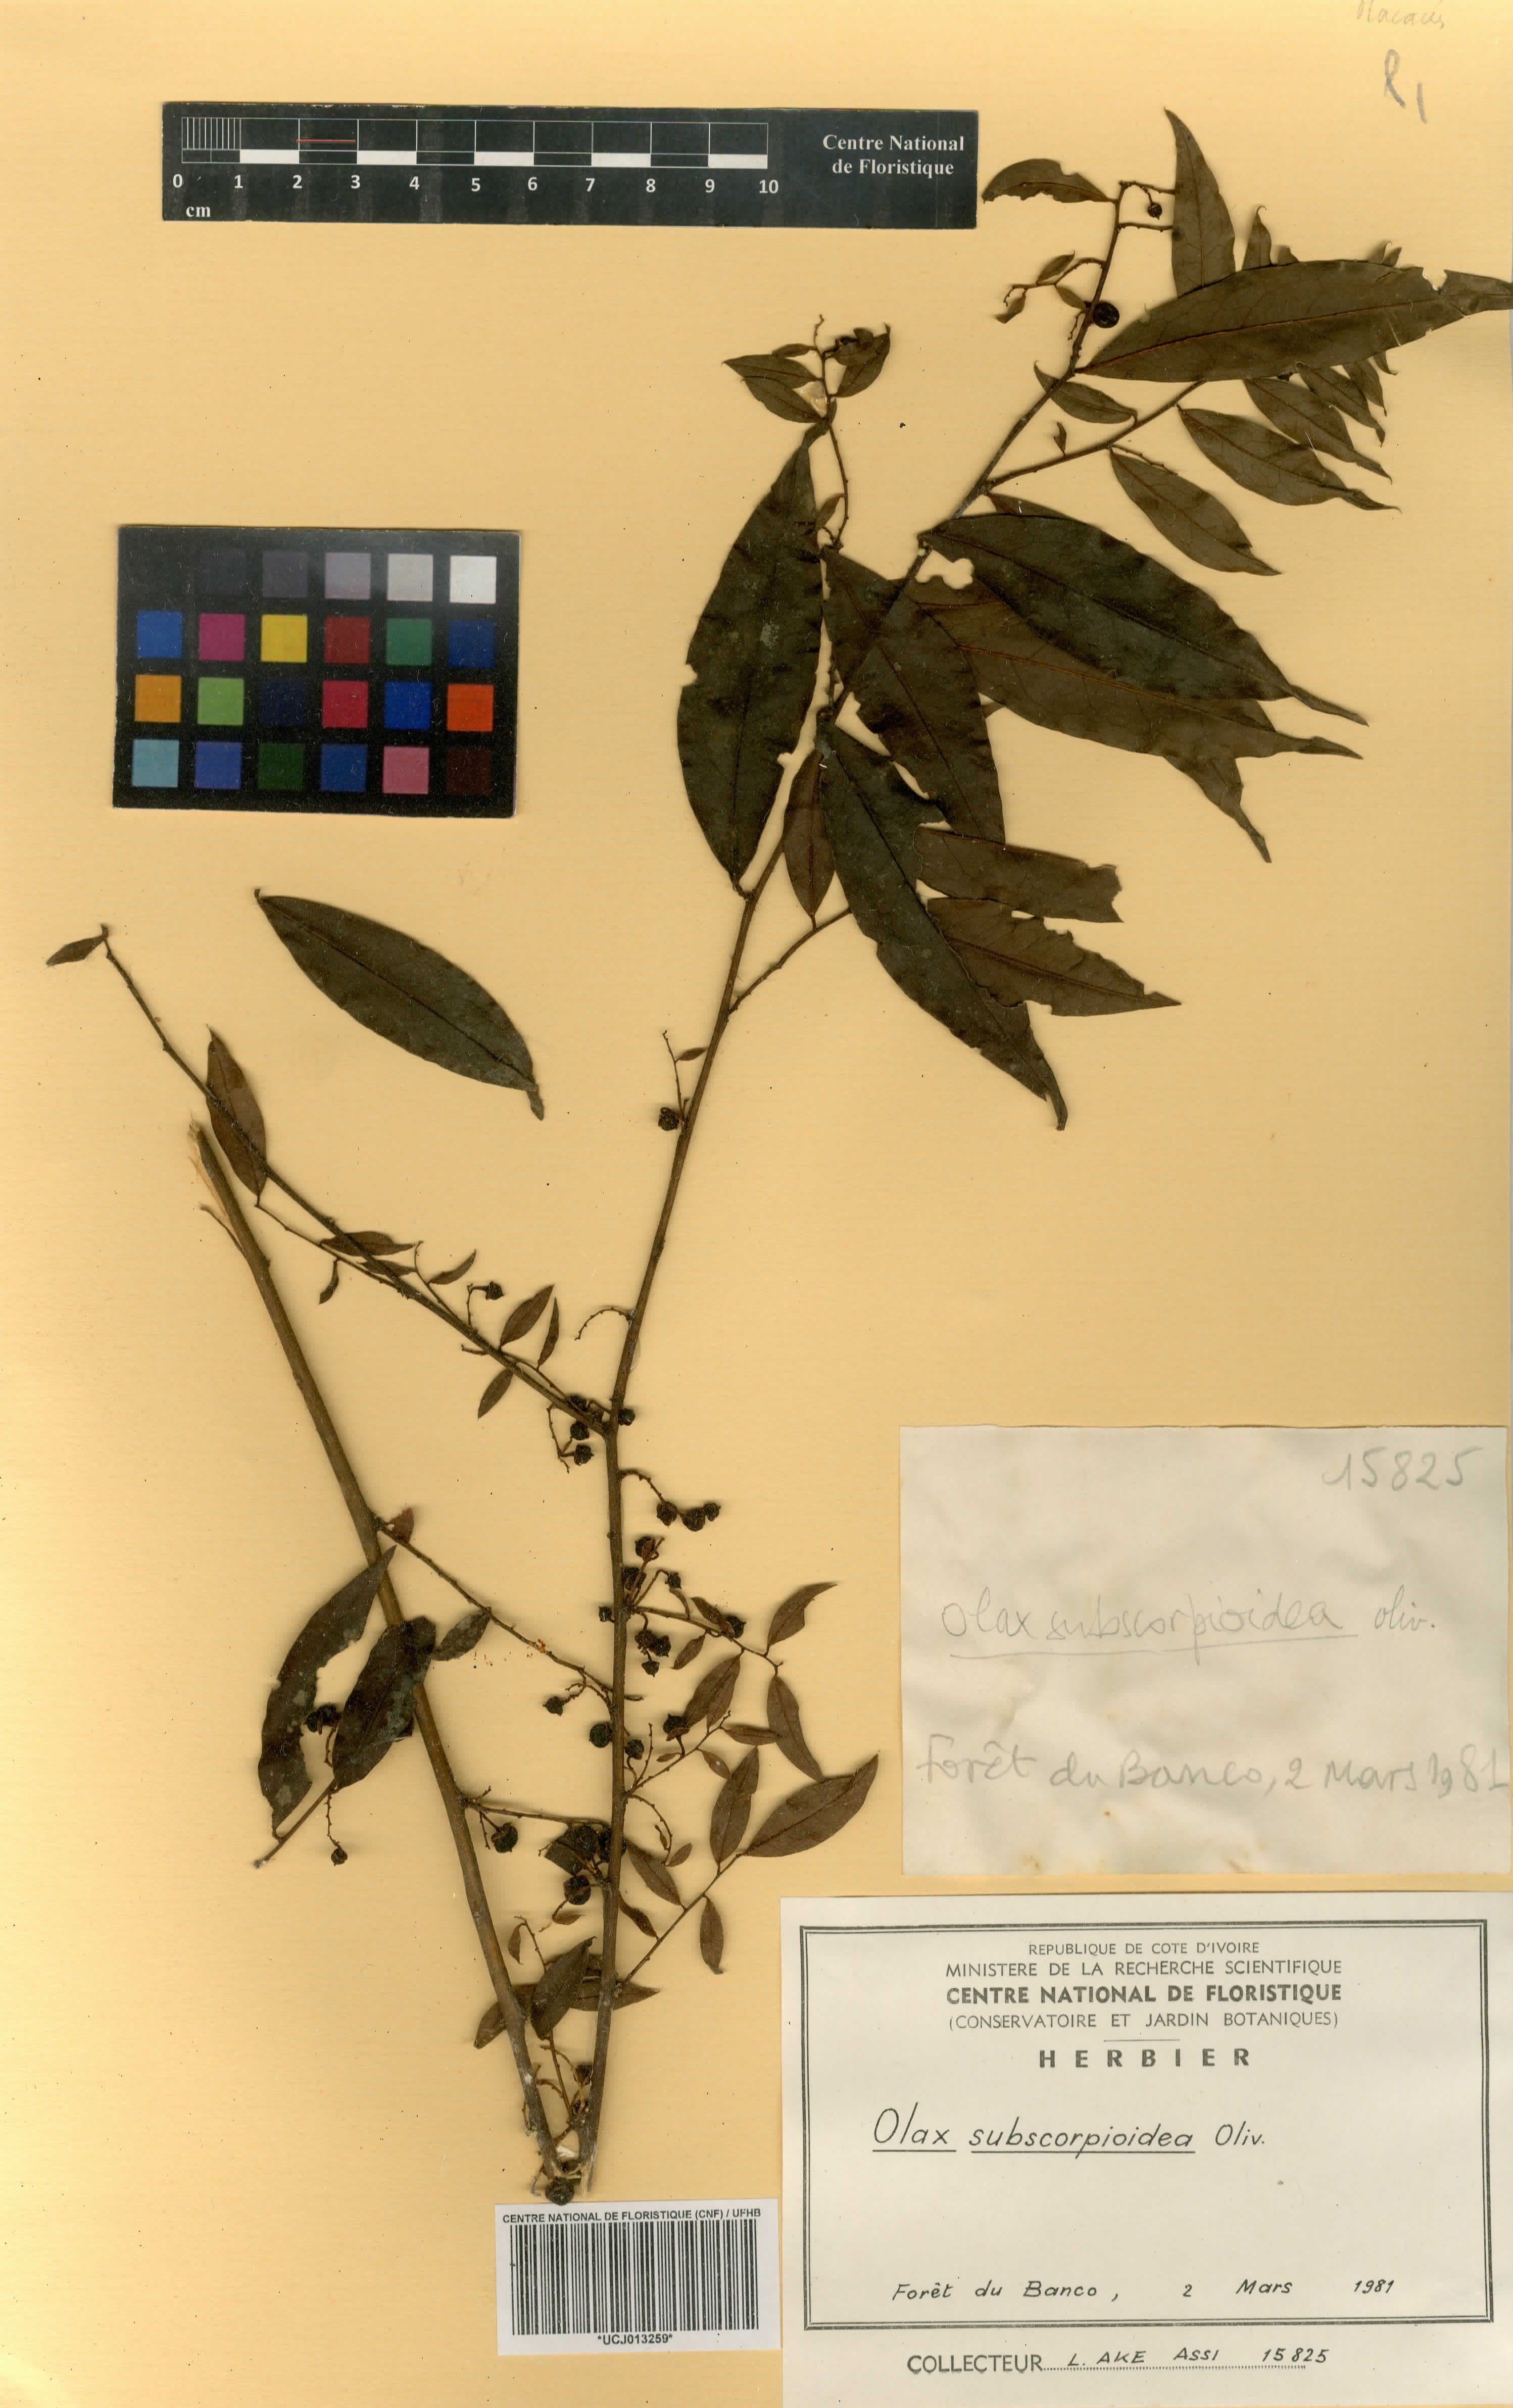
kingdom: Plantae
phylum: Tracheophyta
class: Magnoliopsida
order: Santalales
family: Olacaceae
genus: Olax
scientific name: Olax subscorpioides
